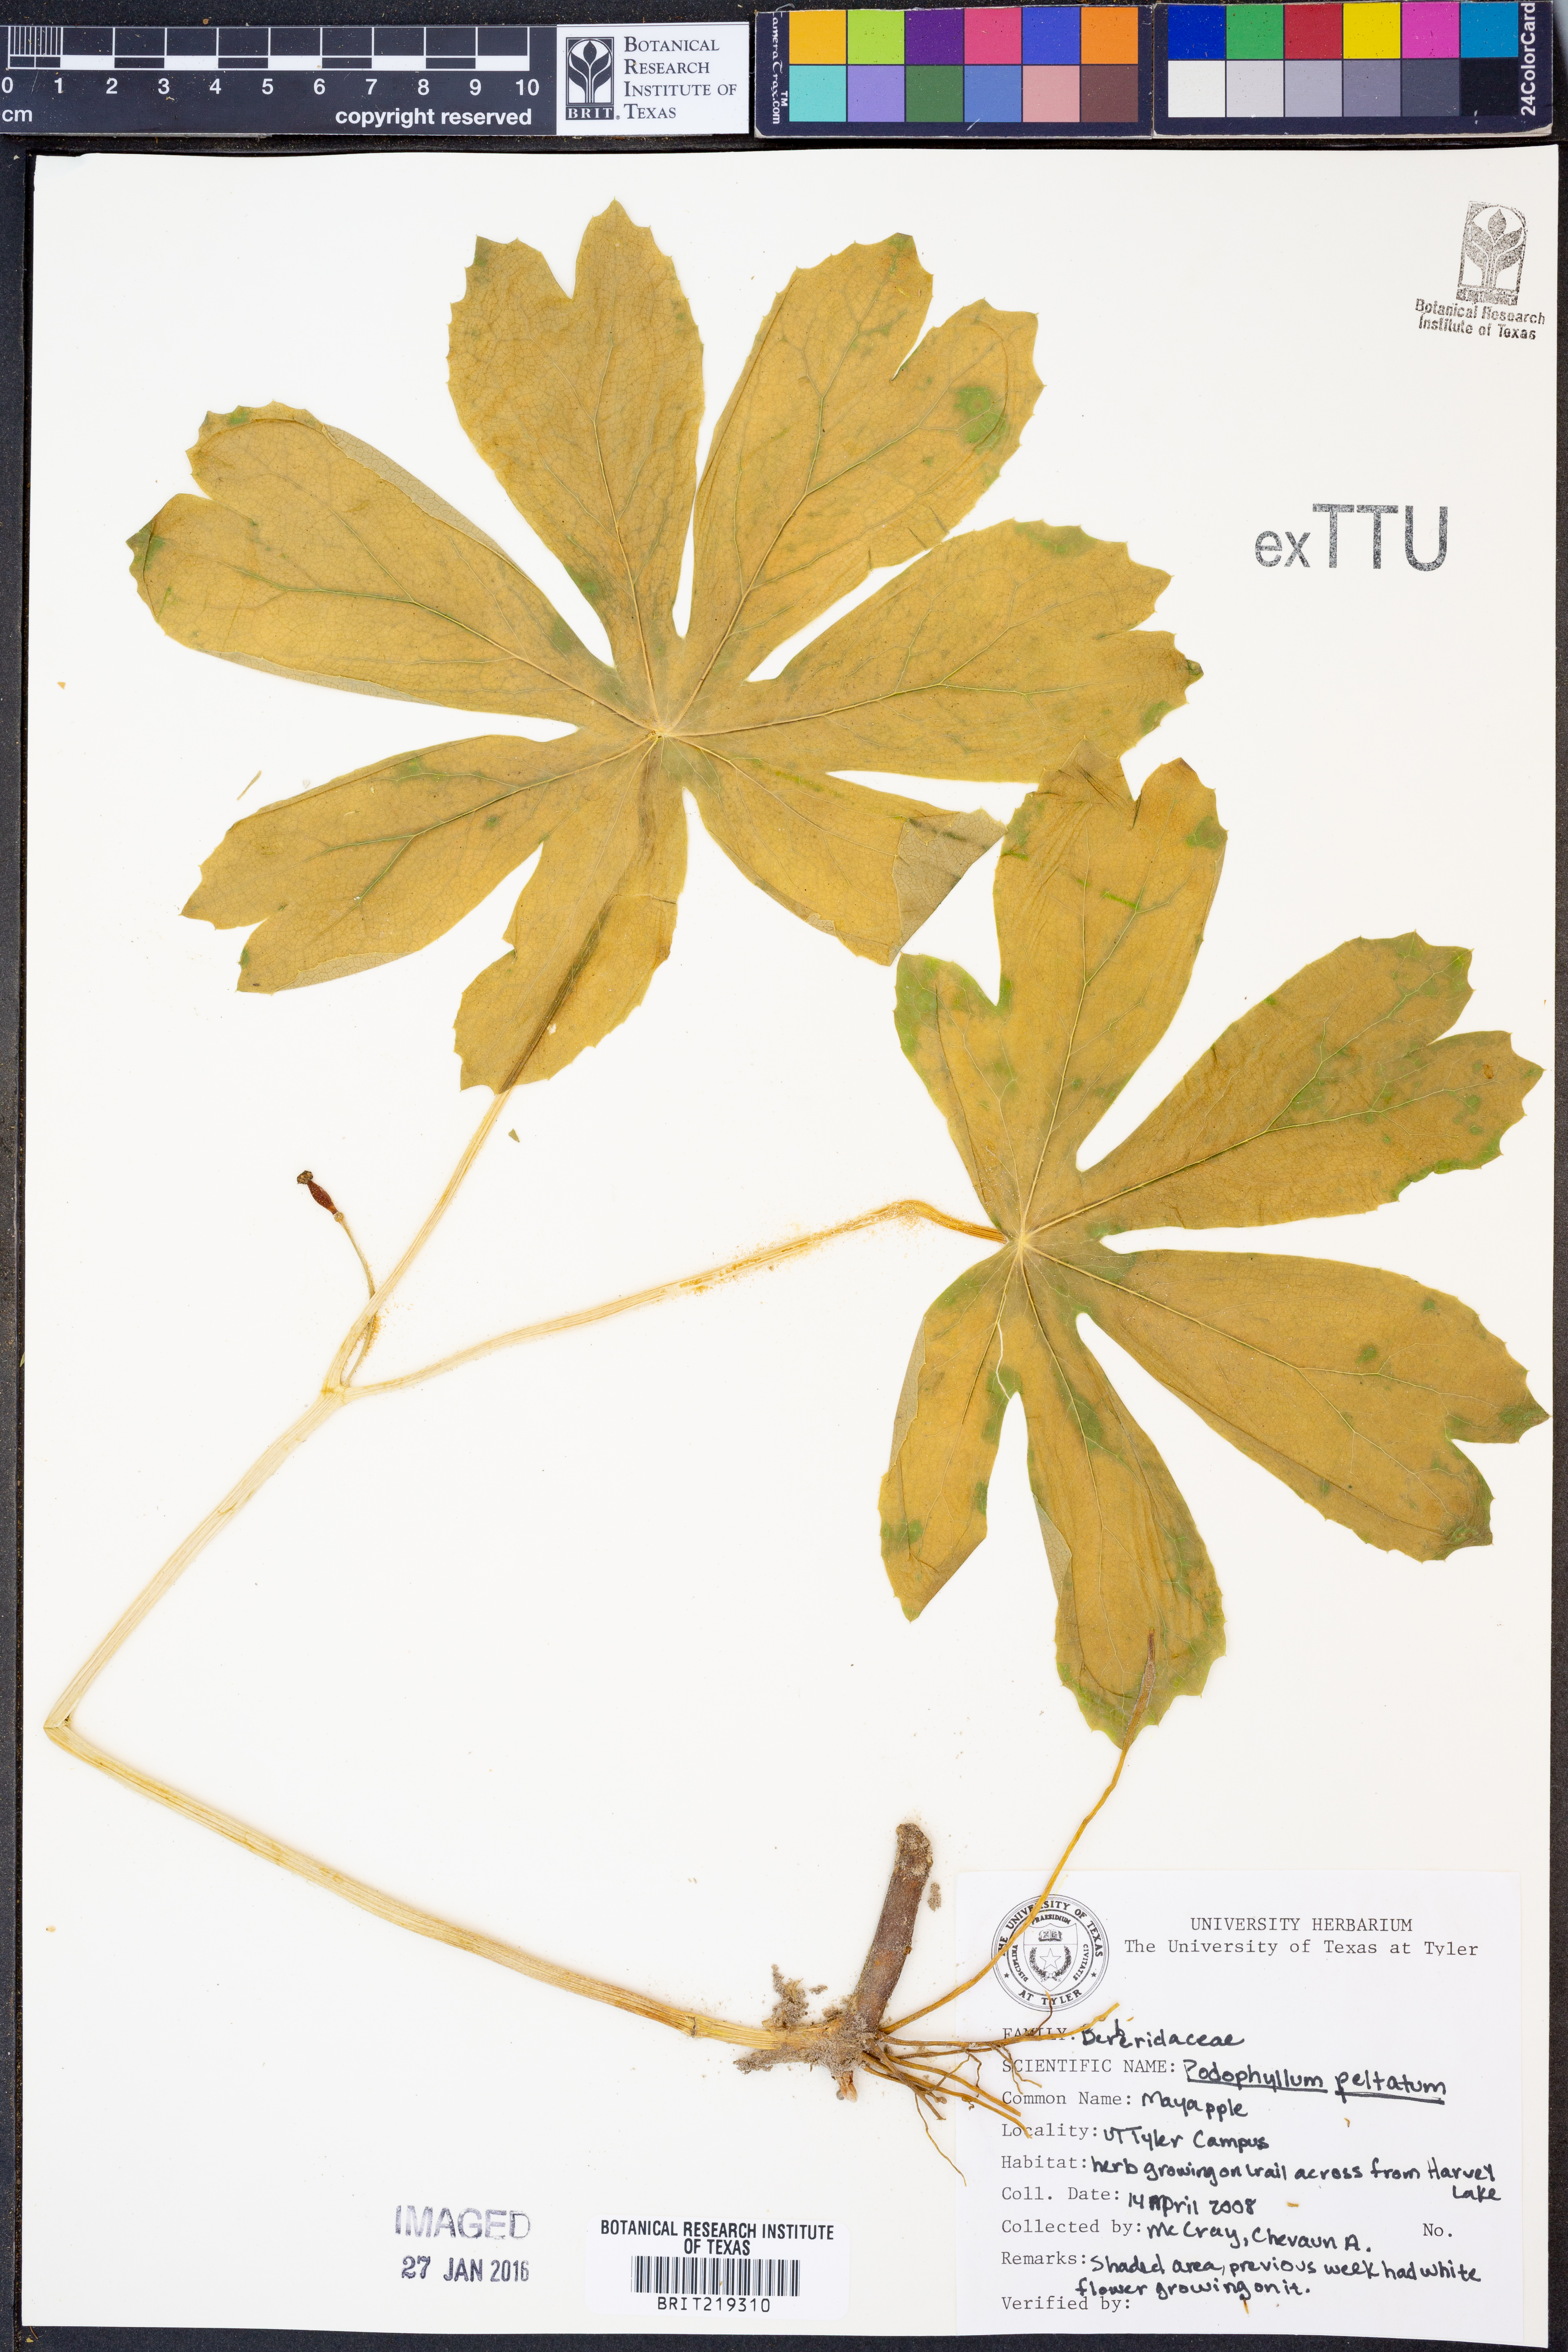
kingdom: Plantae
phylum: Tracheophyta
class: Magnoliopsida
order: Ranunculales
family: Berberidaceae
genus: Podophyllum
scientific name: Podophyllum peltatum
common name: Wild mandrake
